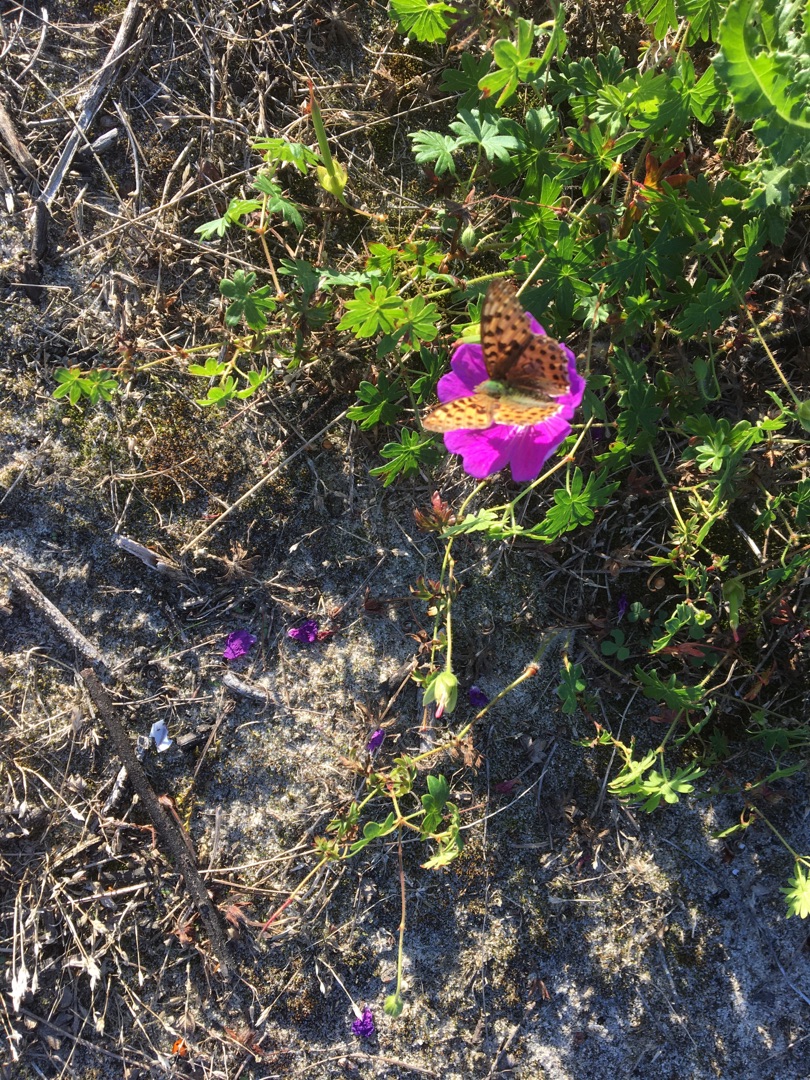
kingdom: Animalia
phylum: Arthropoda
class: Insecta
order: Lepidoptera
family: Nymphalidae
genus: Issoria
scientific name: Issoria lathonia
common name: Storplettet perlemorsommerfugl
